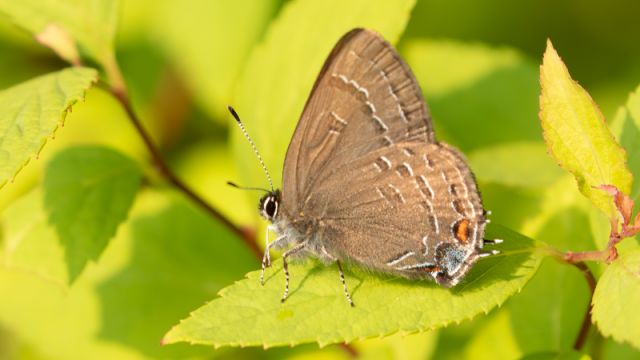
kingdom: Animalia
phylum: Arthropoda
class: Insecta
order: Lepidoptera
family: Lycaenidae
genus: Satyrium
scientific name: Satyrium calanus
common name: Banded Hairstreak
